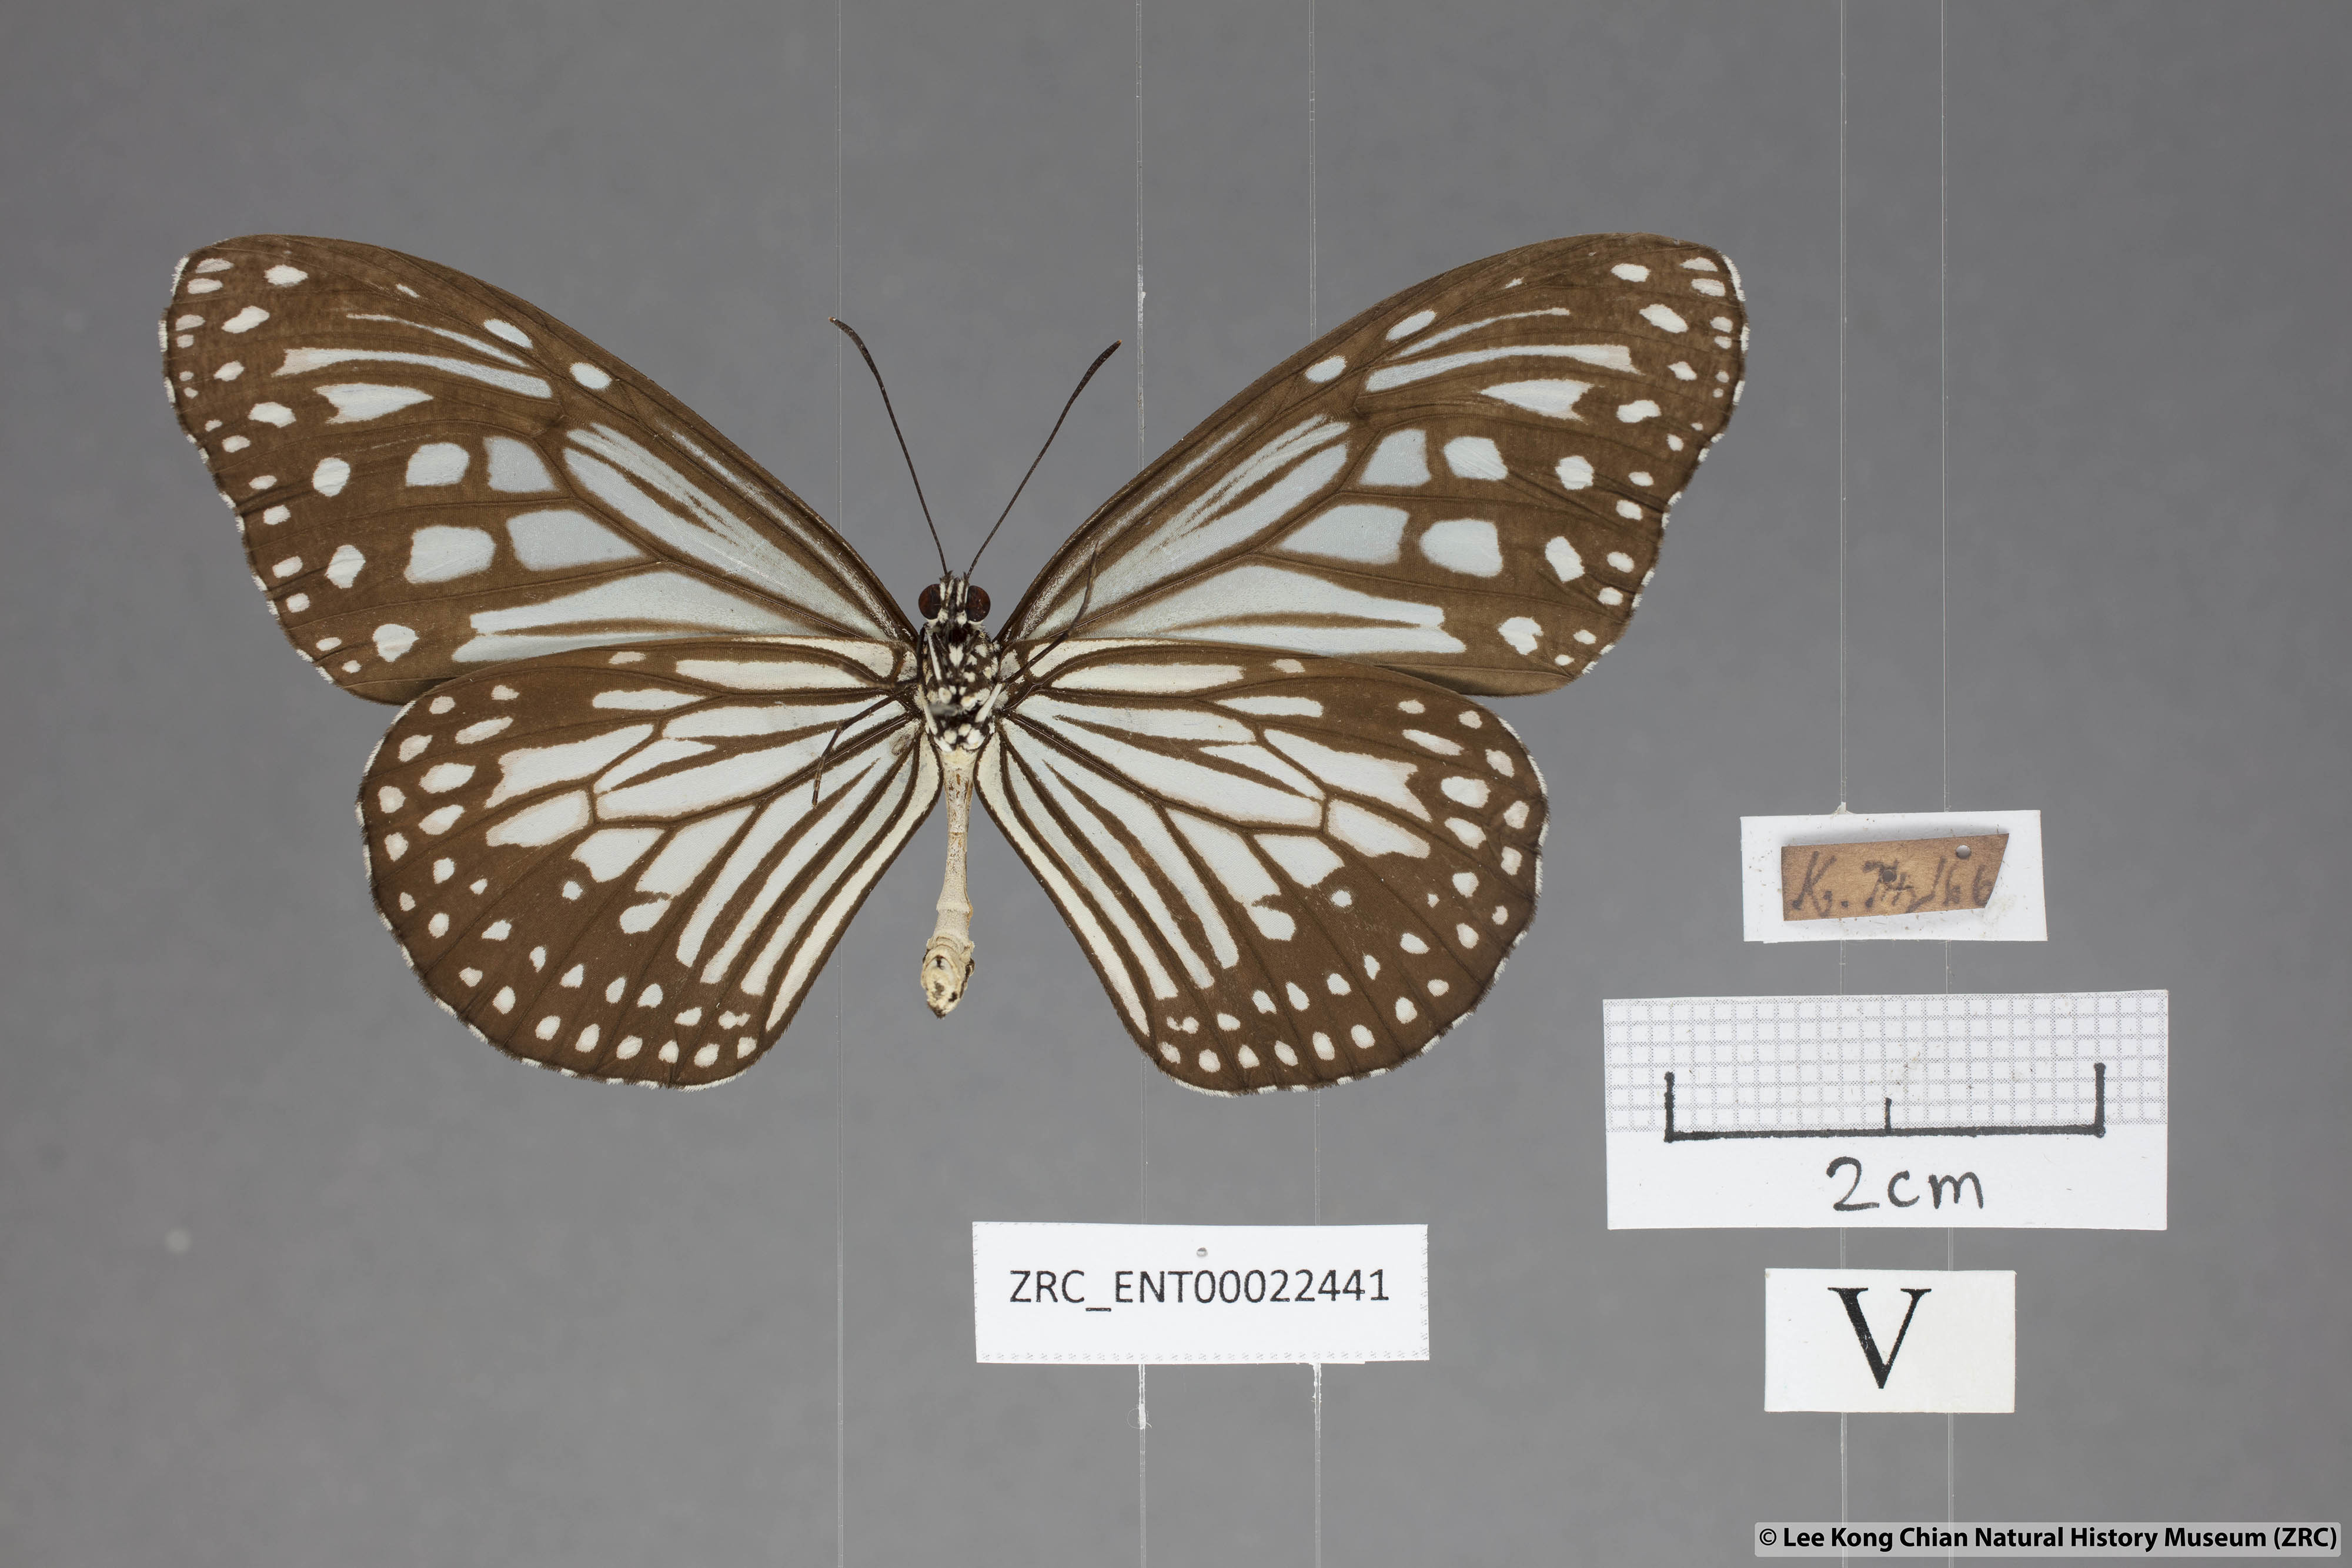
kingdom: Animalia
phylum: Arthropoda
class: Insecta
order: Lepidoptera
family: Nymphalidae
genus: Parantica
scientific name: Parantica aglea
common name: Glassy tiger
